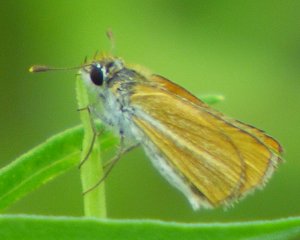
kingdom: Animalia
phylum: Arthropoda
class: Insecta
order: Lepidoptera
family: Hesperiidae
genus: Copaeodes
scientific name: Copaeodes minima
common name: Southern Skipperling
